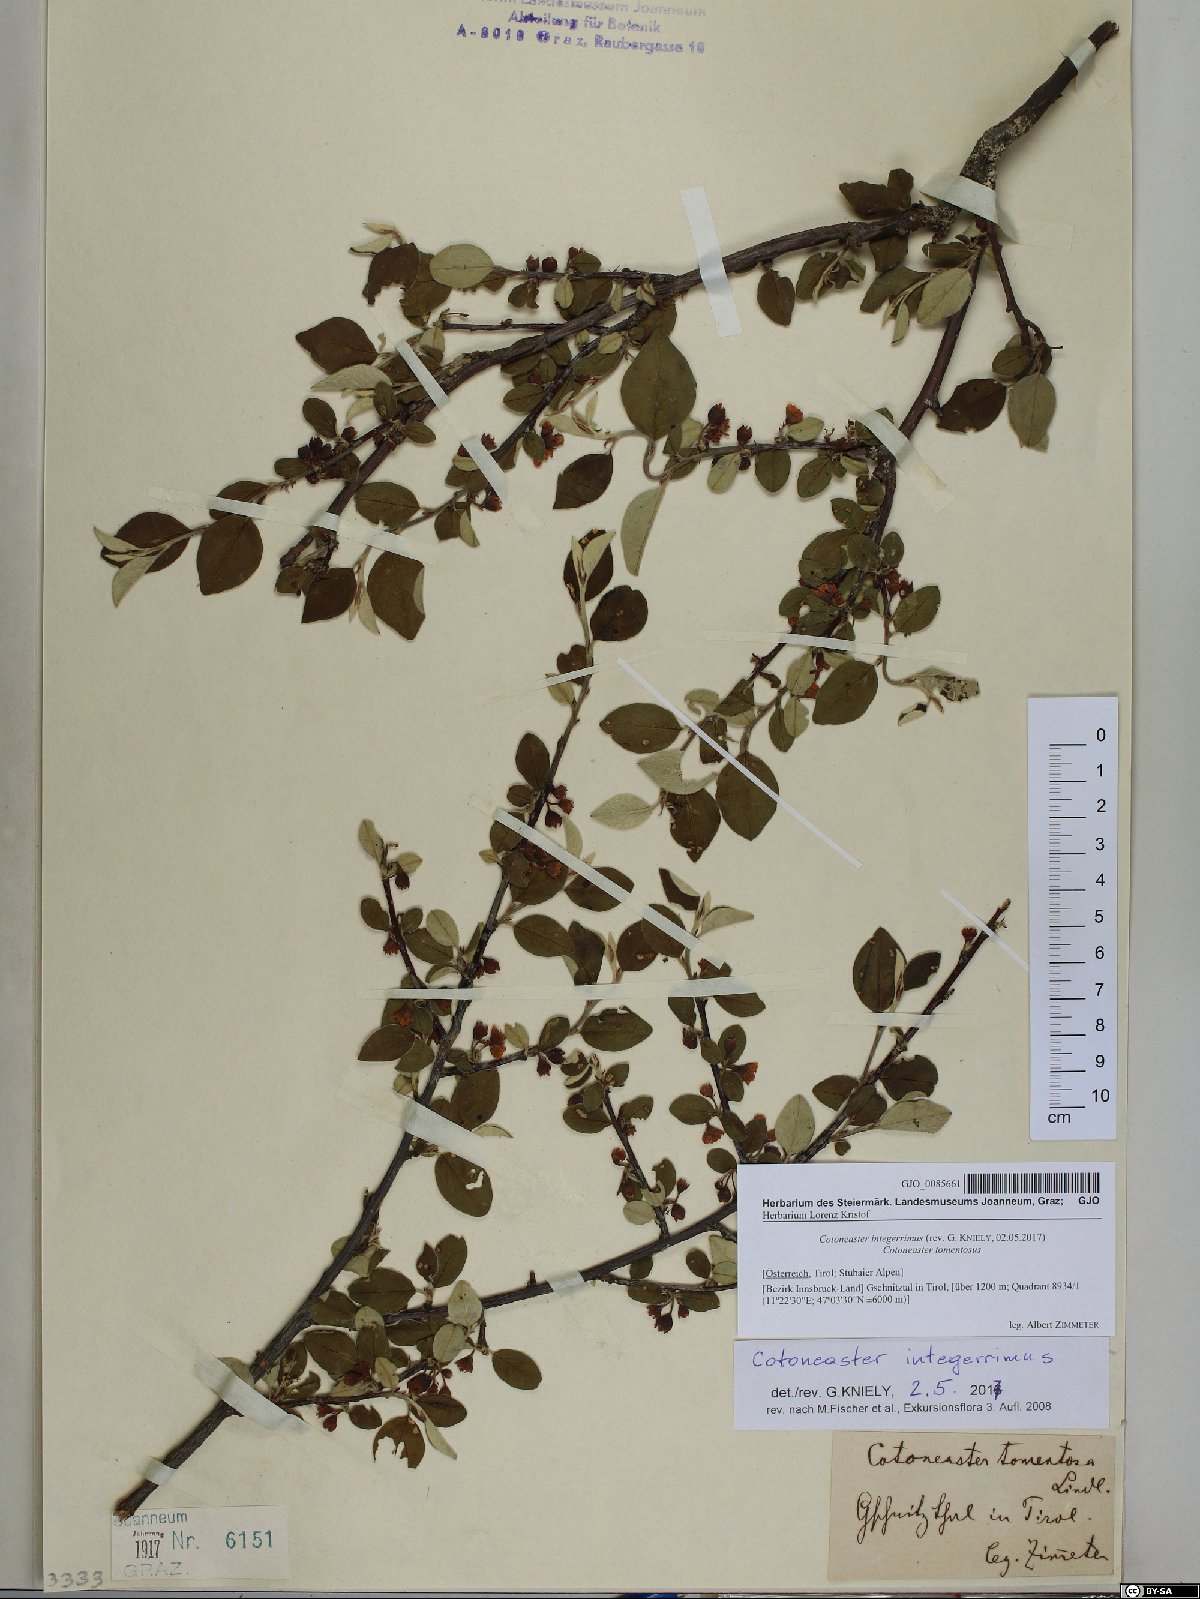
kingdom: Plantae
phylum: Tracheophyta
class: Magnoliopsida
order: Rosales
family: Rosaceae
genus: Cotoneaster
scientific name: Cotoneaster integerrimus
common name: Wild cotoneaster
